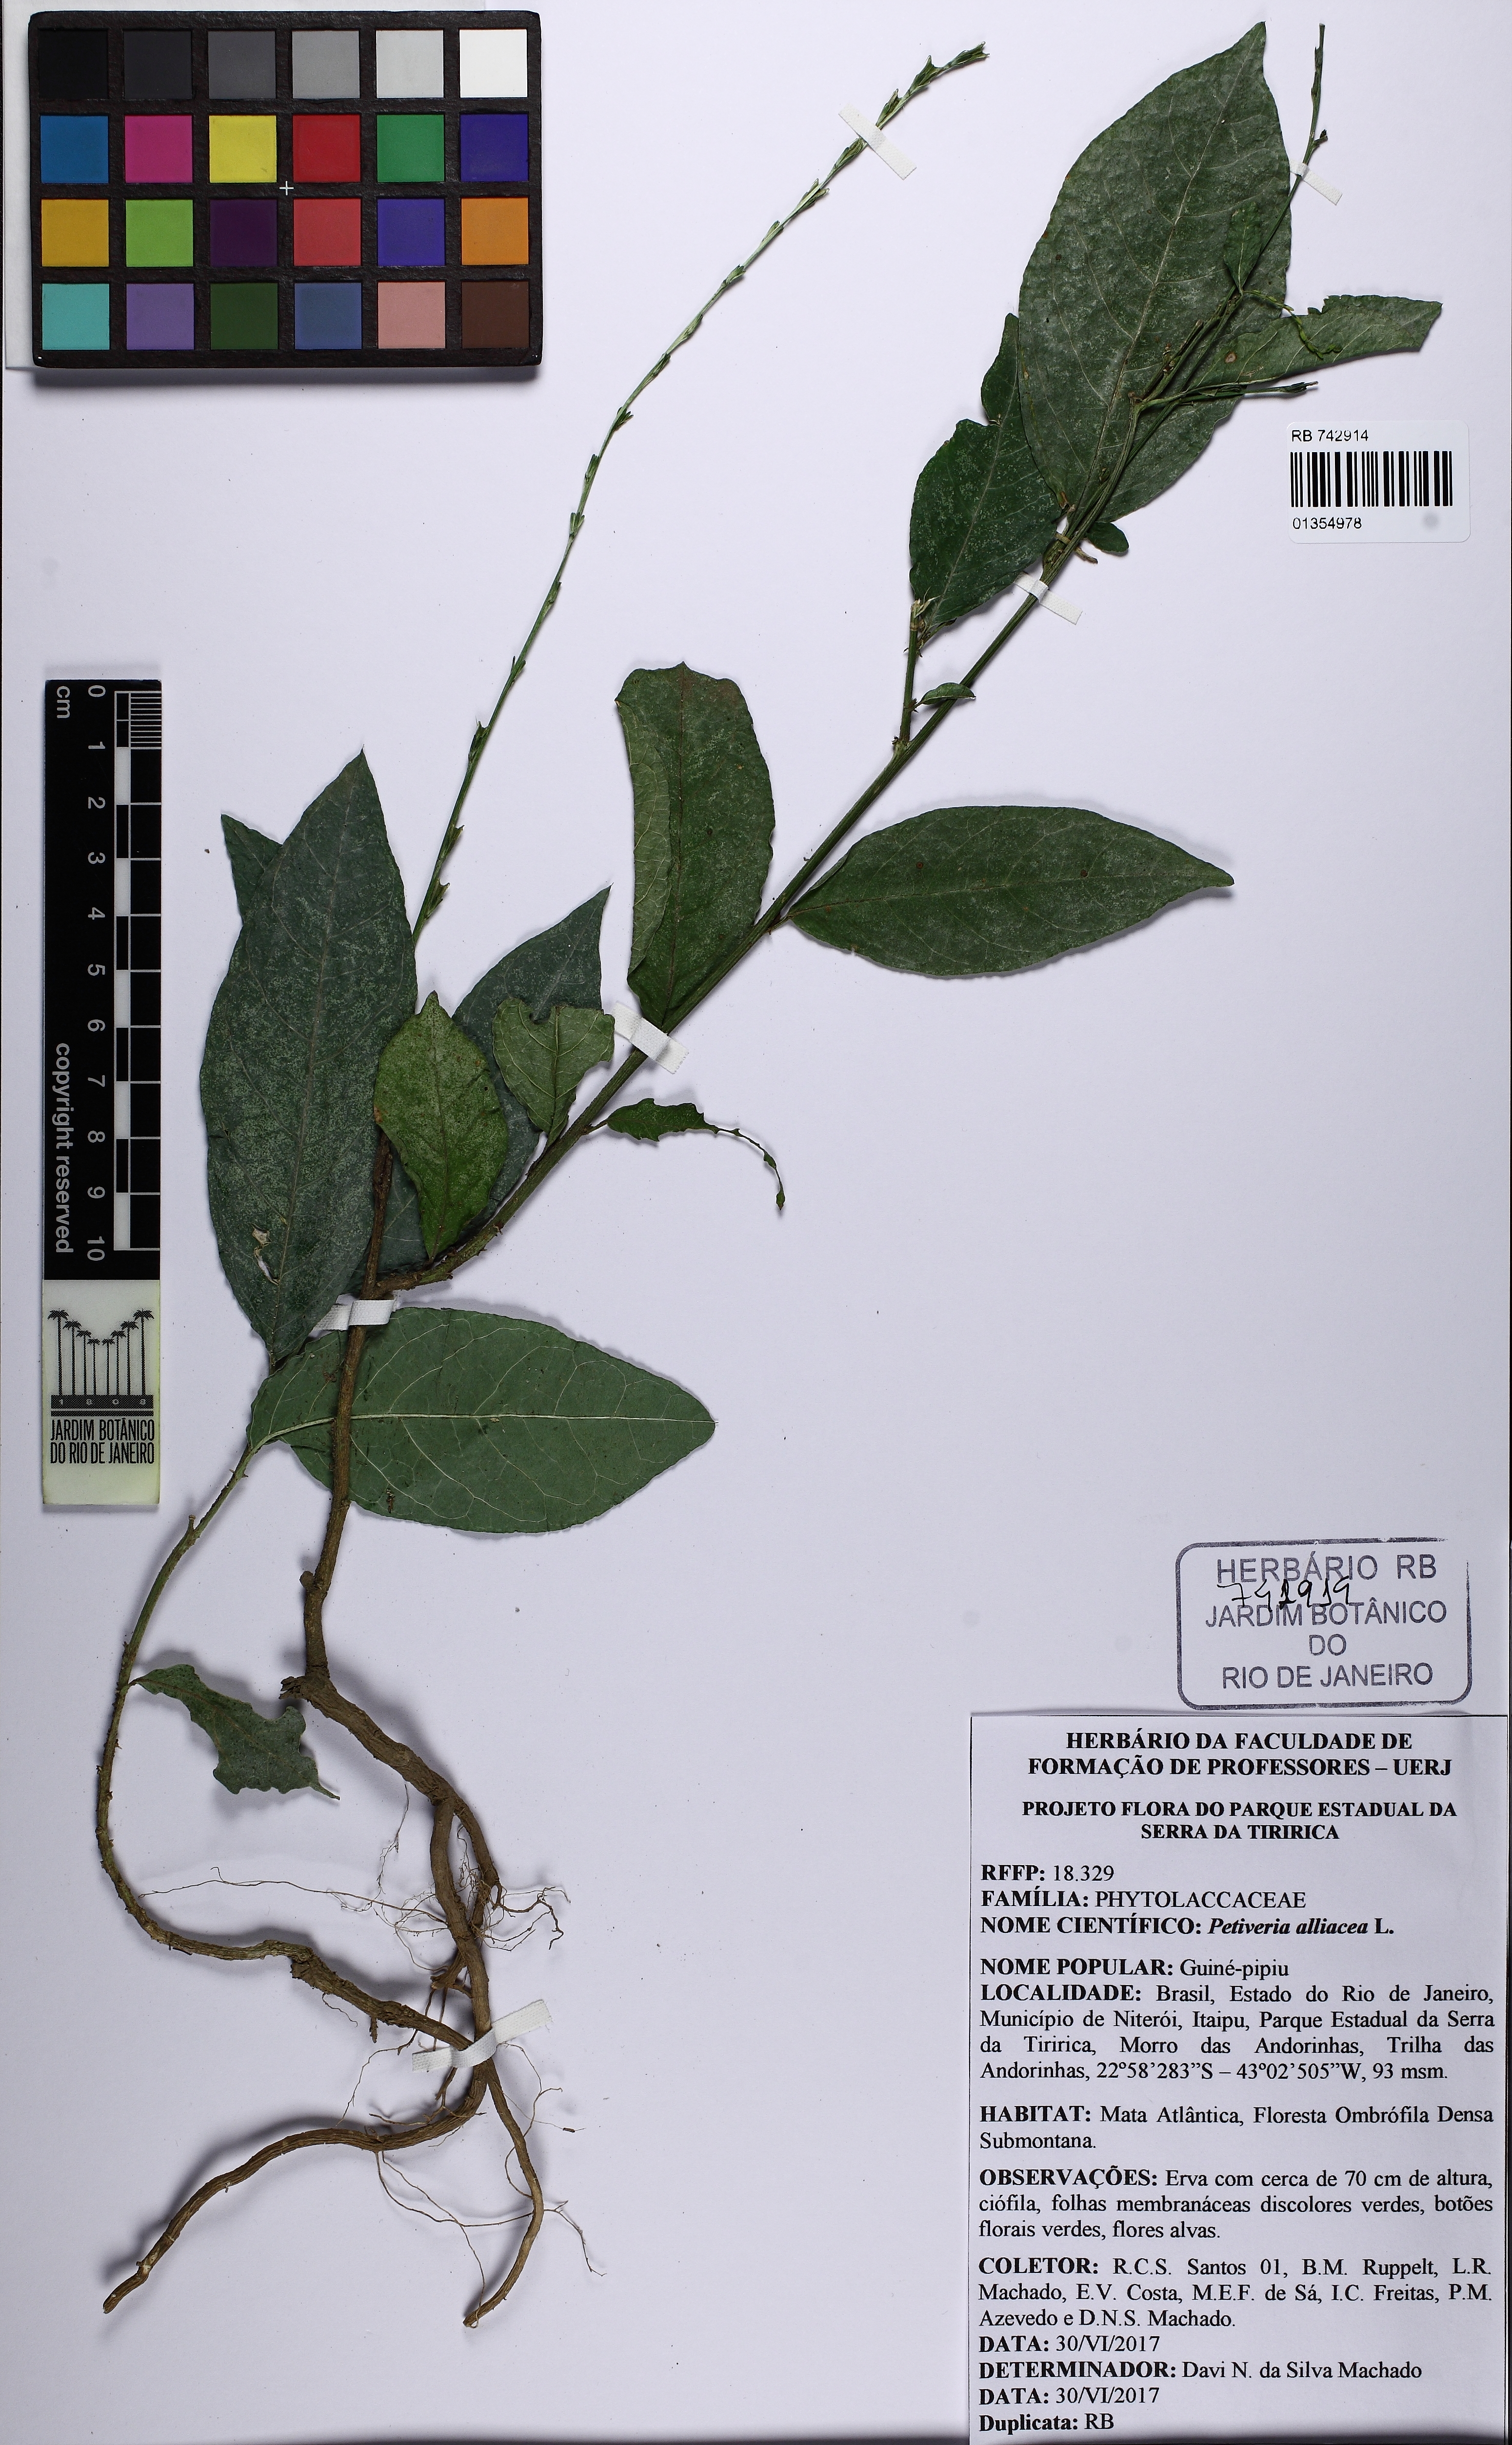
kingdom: Plantae
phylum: Tracheophyta
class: Magnoliopsida
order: Caryophyllales
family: Phytolaccaceae
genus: Petiveria
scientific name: Petiveria alliacea
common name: Garlicweed
